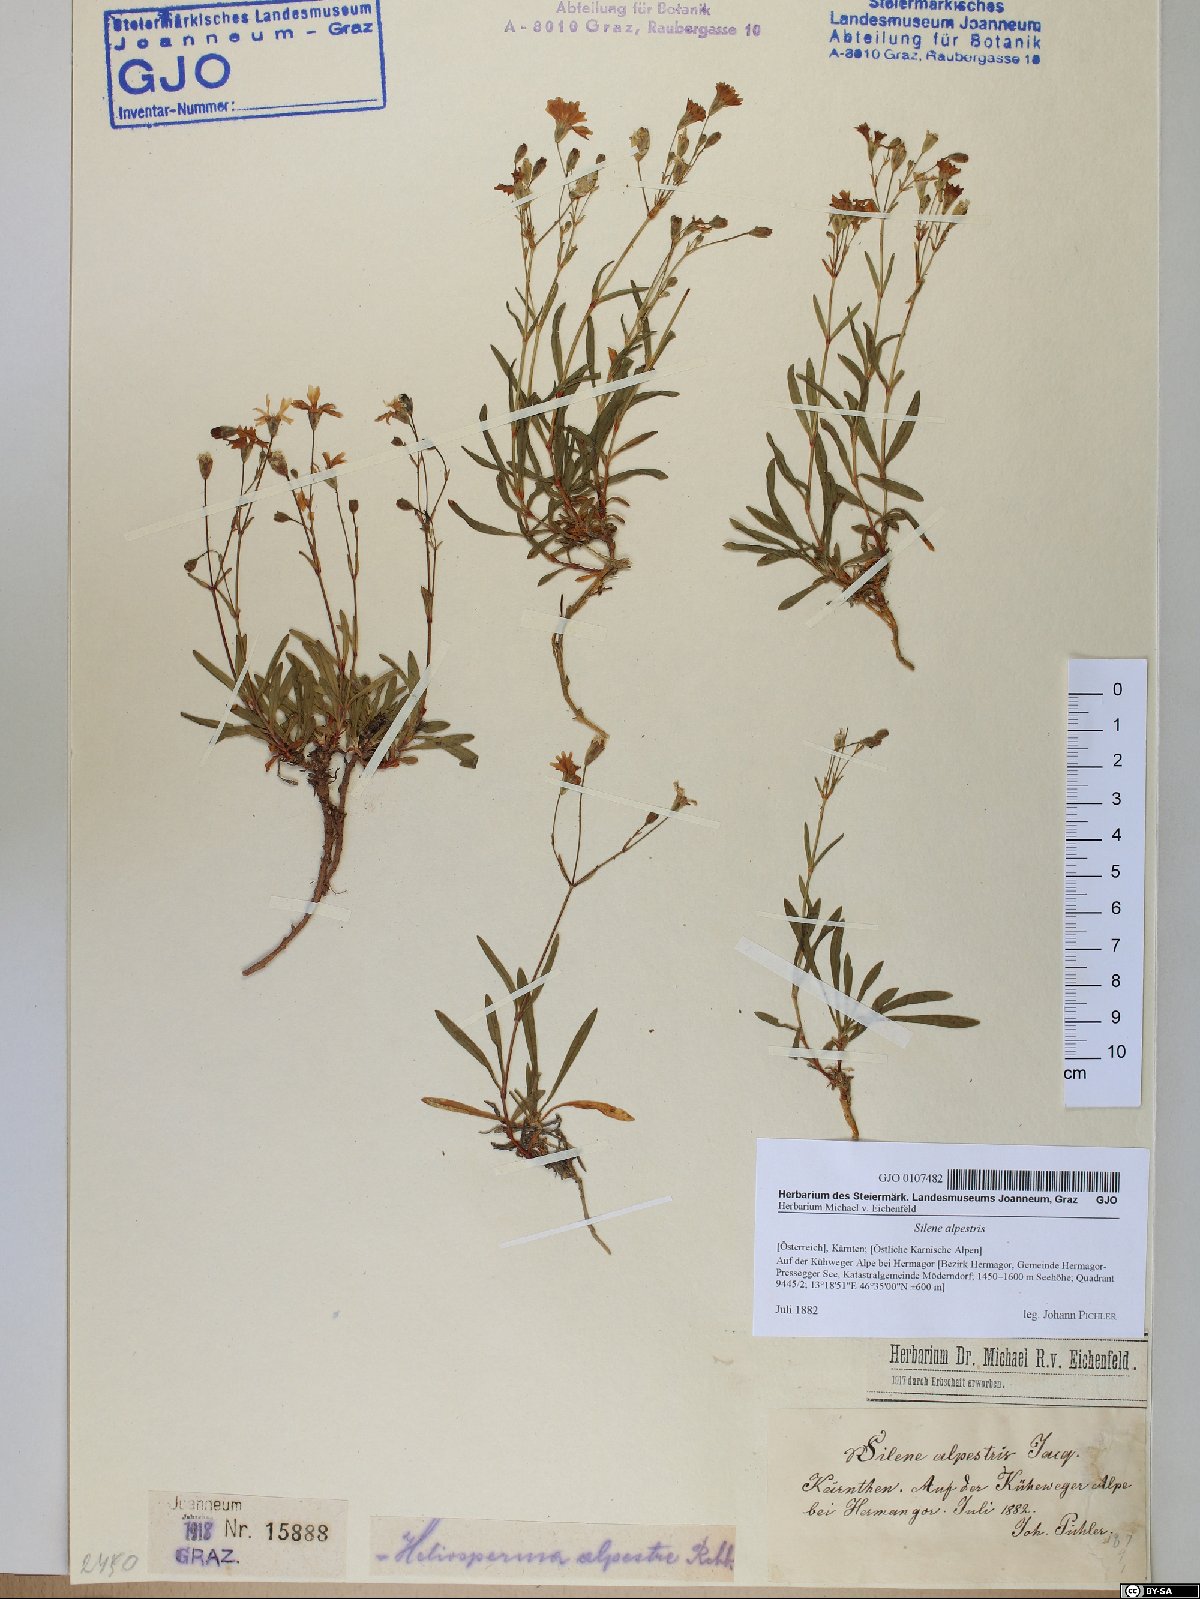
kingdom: Plantae
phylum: Tracheophyta
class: Magnoliopsida
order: Caryophyllales
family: Caryophyllaceae
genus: Heliosperma
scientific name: Heliosperma alpestre
